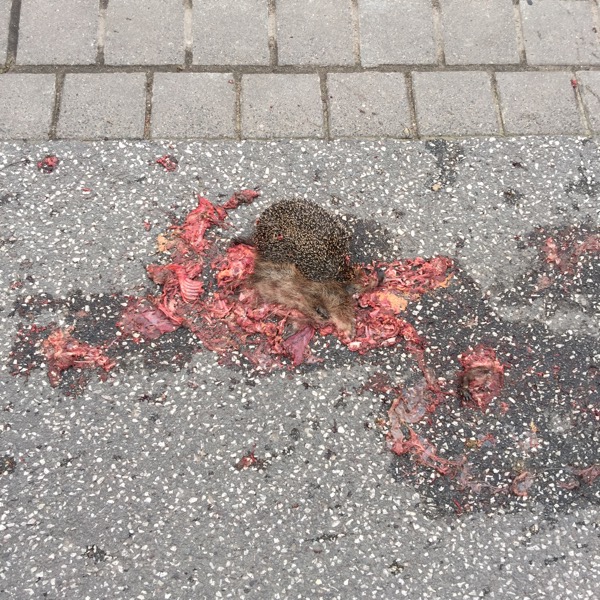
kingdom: Animalia
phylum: Chordata
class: Mammalia
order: Erinaceomorpha
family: Erinaceidae
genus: Erinaceus
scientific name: Erinaceus
